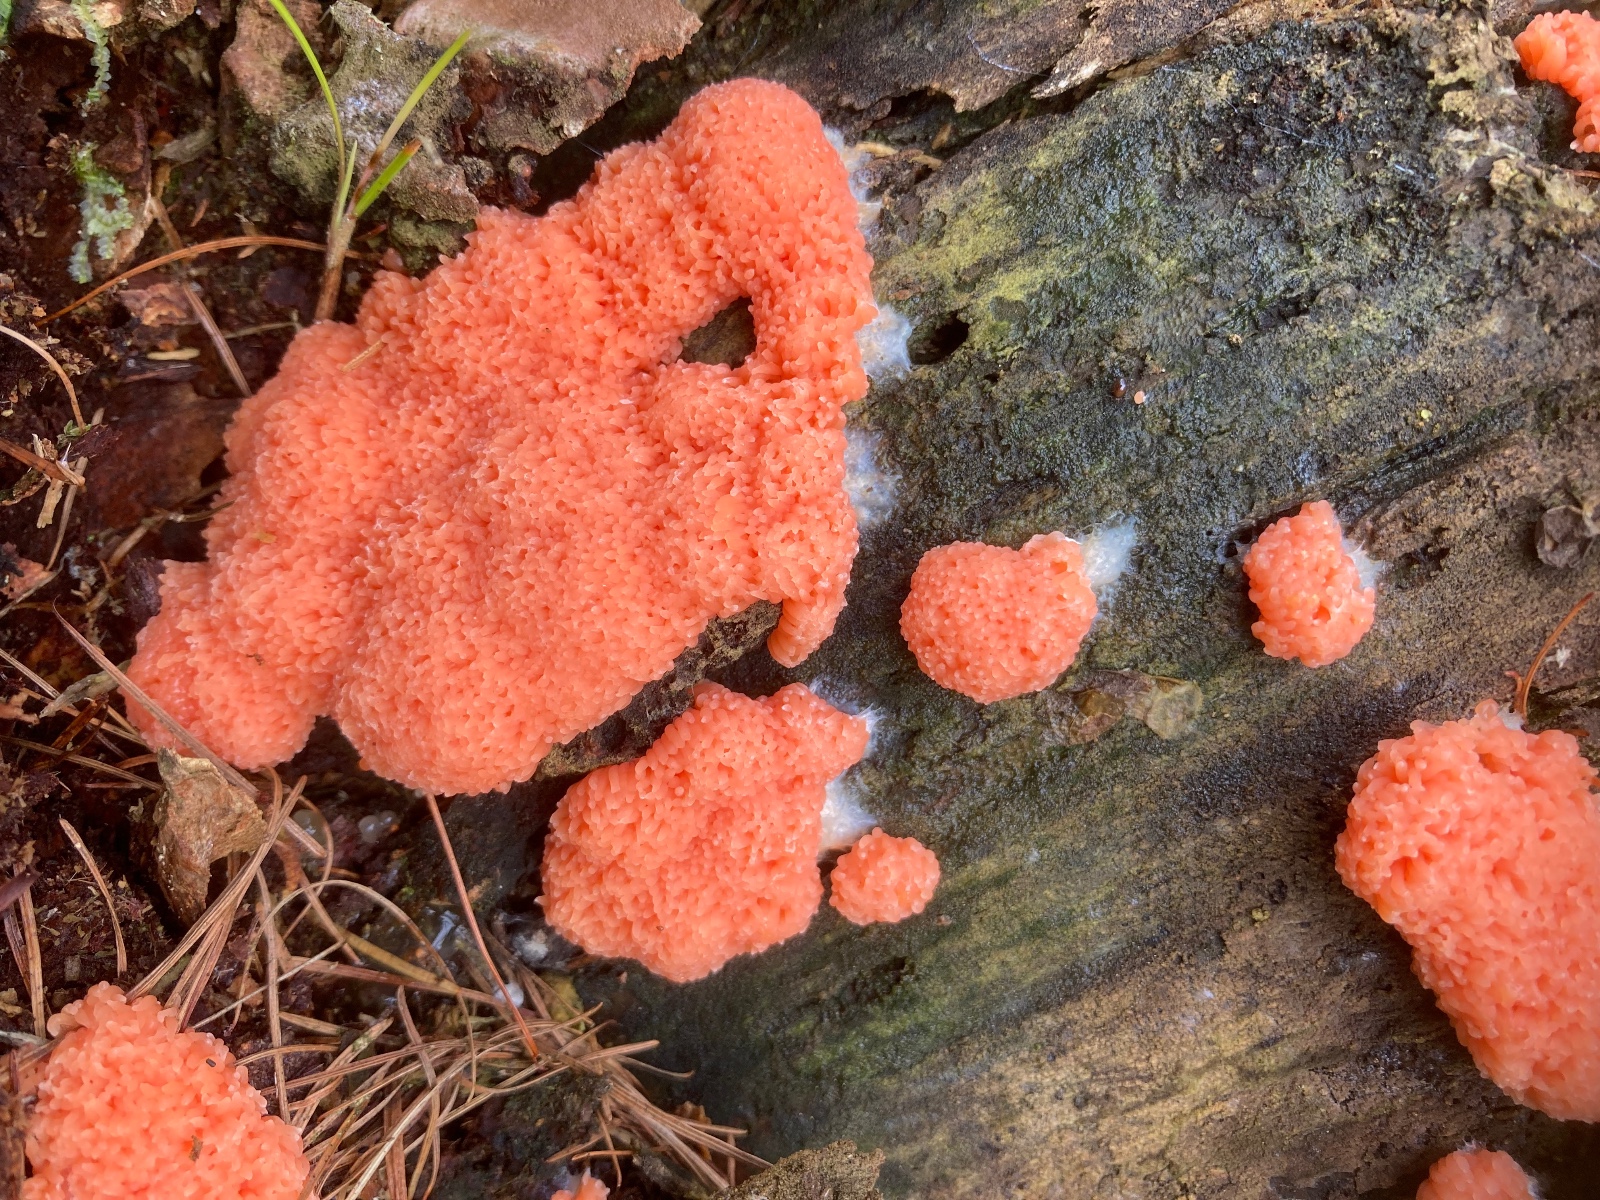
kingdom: Protozoa
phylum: Mycetozoa
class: Myxomycetes
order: Cribrariales
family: Tubiferaceae
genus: Tubifera
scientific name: Tubifera ferruginosa
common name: kanel-støvrør
